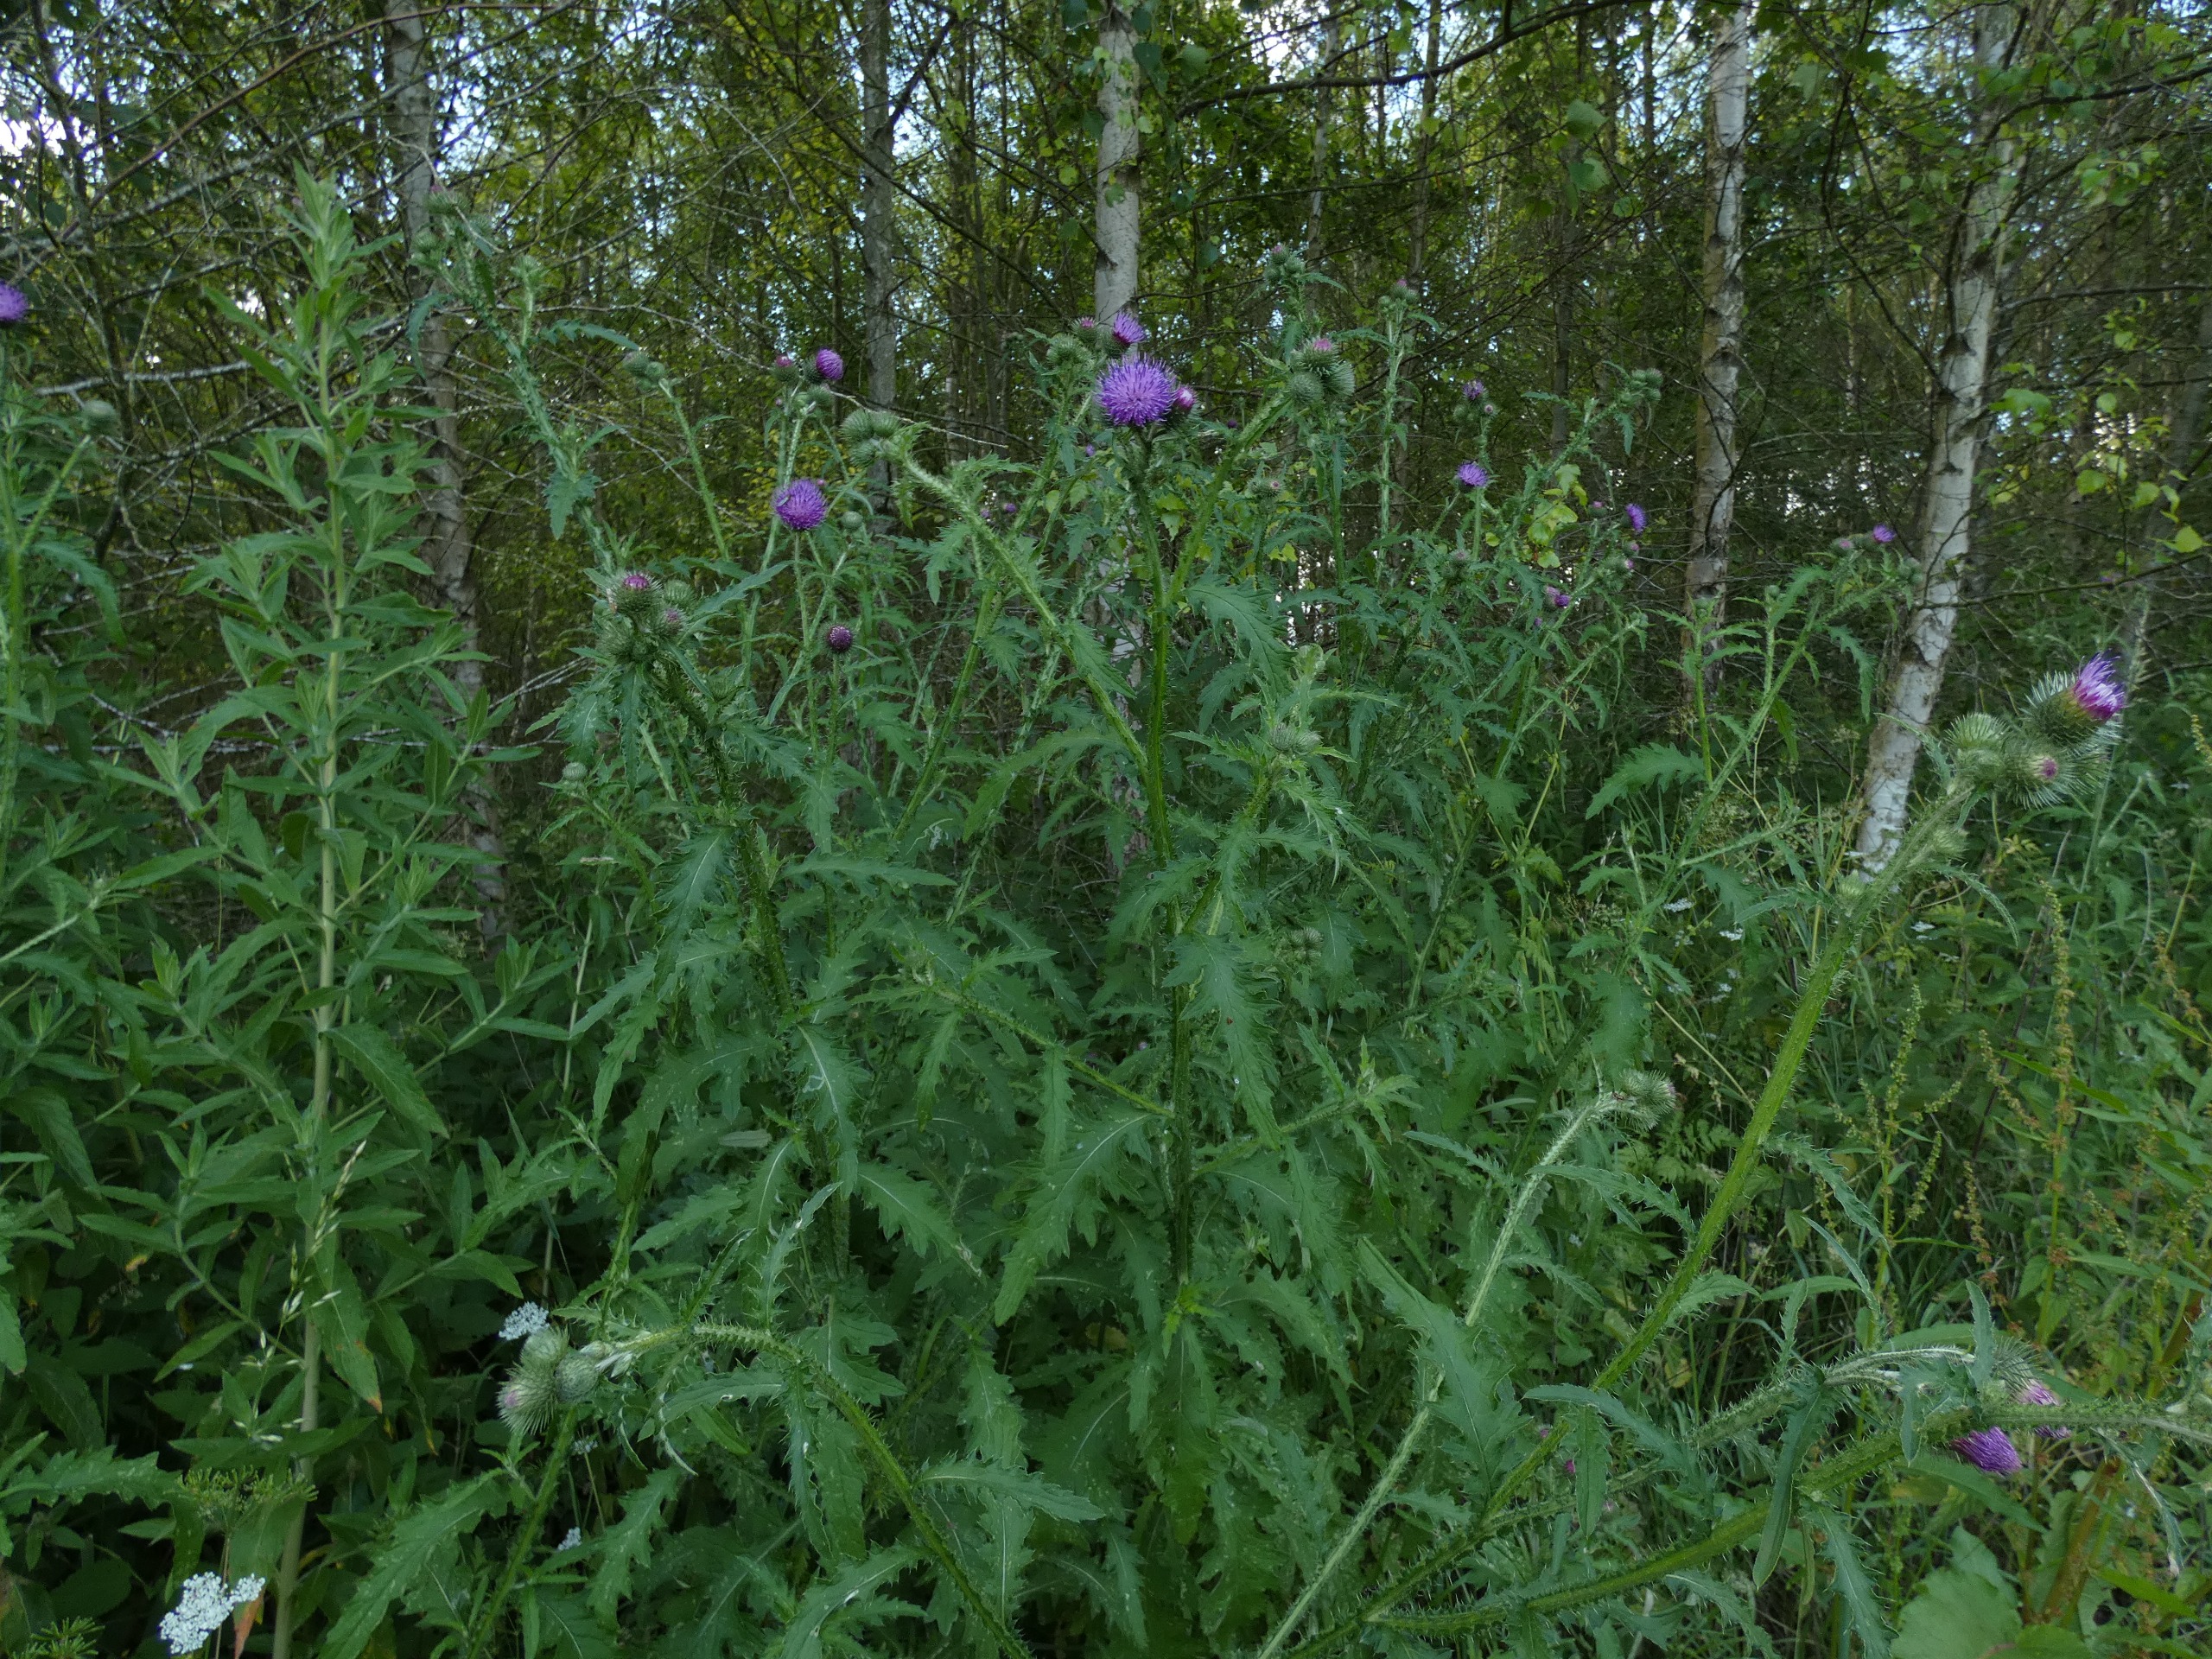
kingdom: Plantae
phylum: Tracheophyta
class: Magnoliopsida
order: Asterales
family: Asteraceae
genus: Carduus
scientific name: Carduus crispus
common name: Kruset tidsel
